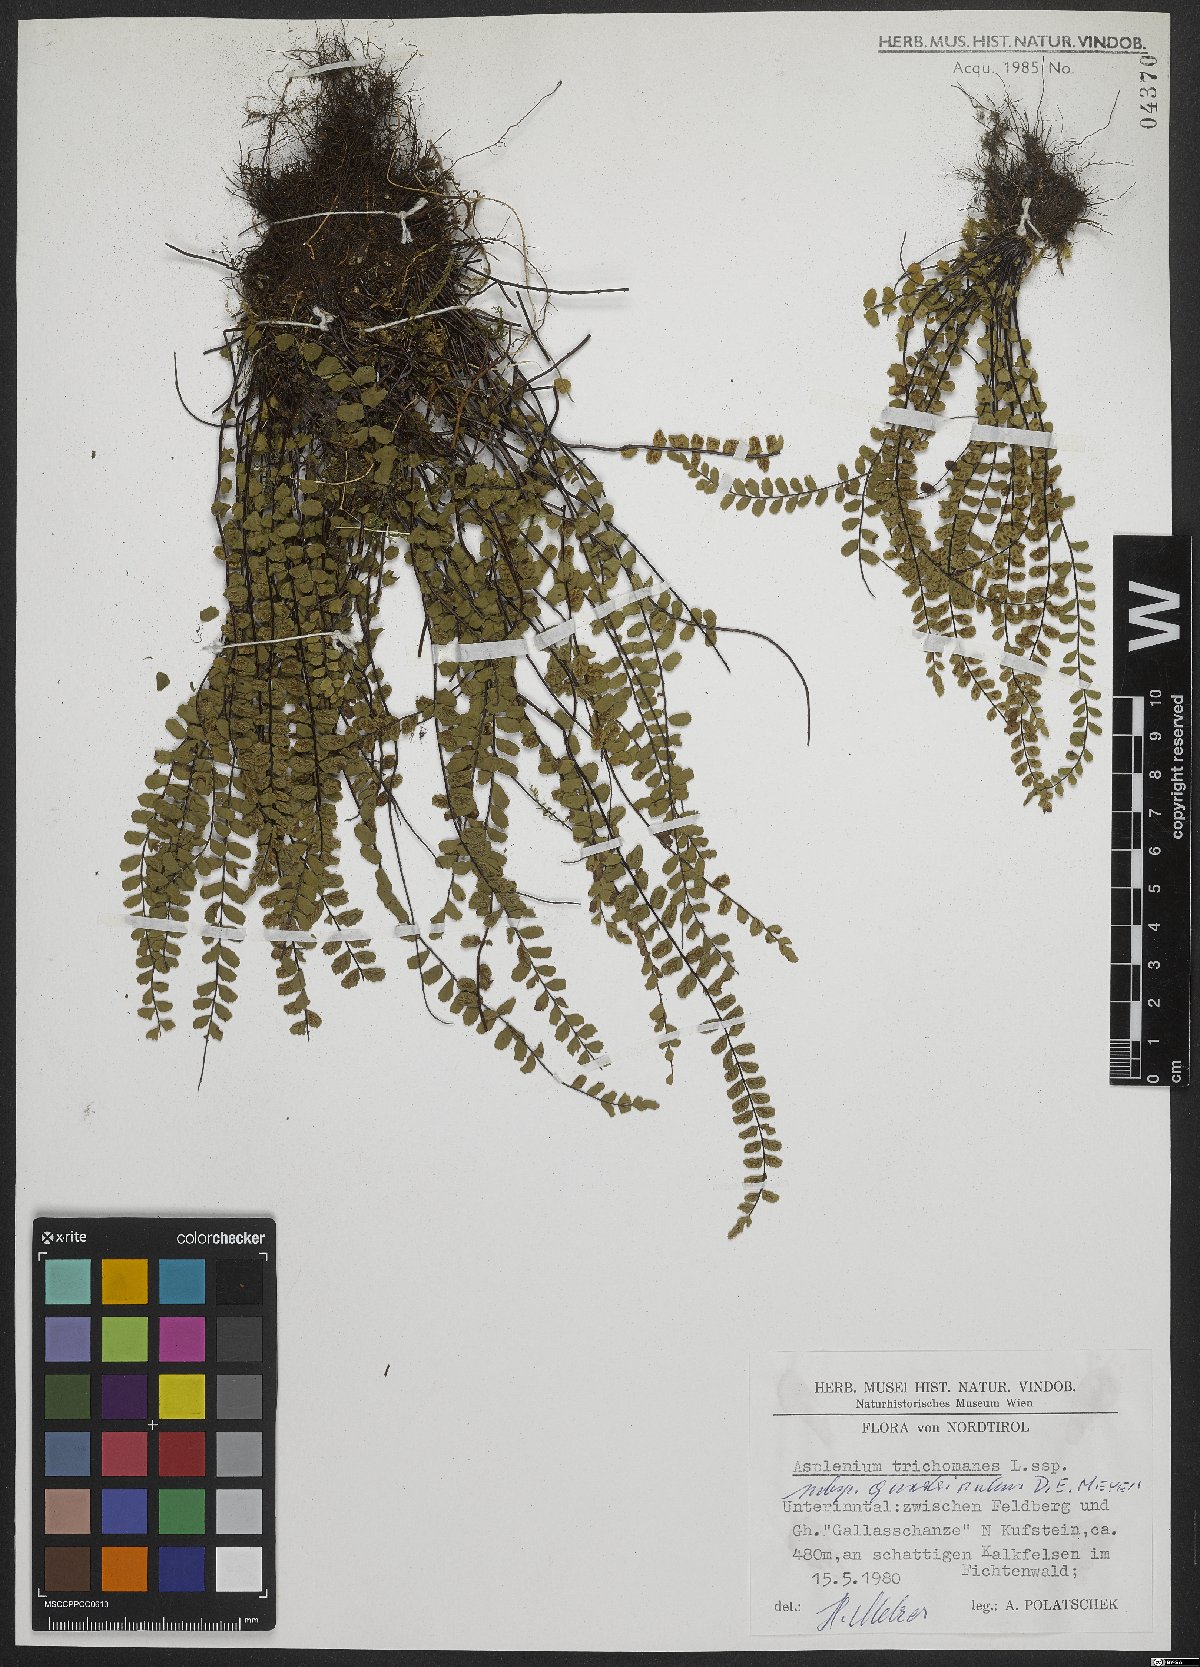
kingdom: Plantae
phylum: Tracheophyta
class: Polypodiopsida
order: Polypodiales
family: Aspleniaceae
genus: Asplenium
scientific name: Asplenium quadrivalens
